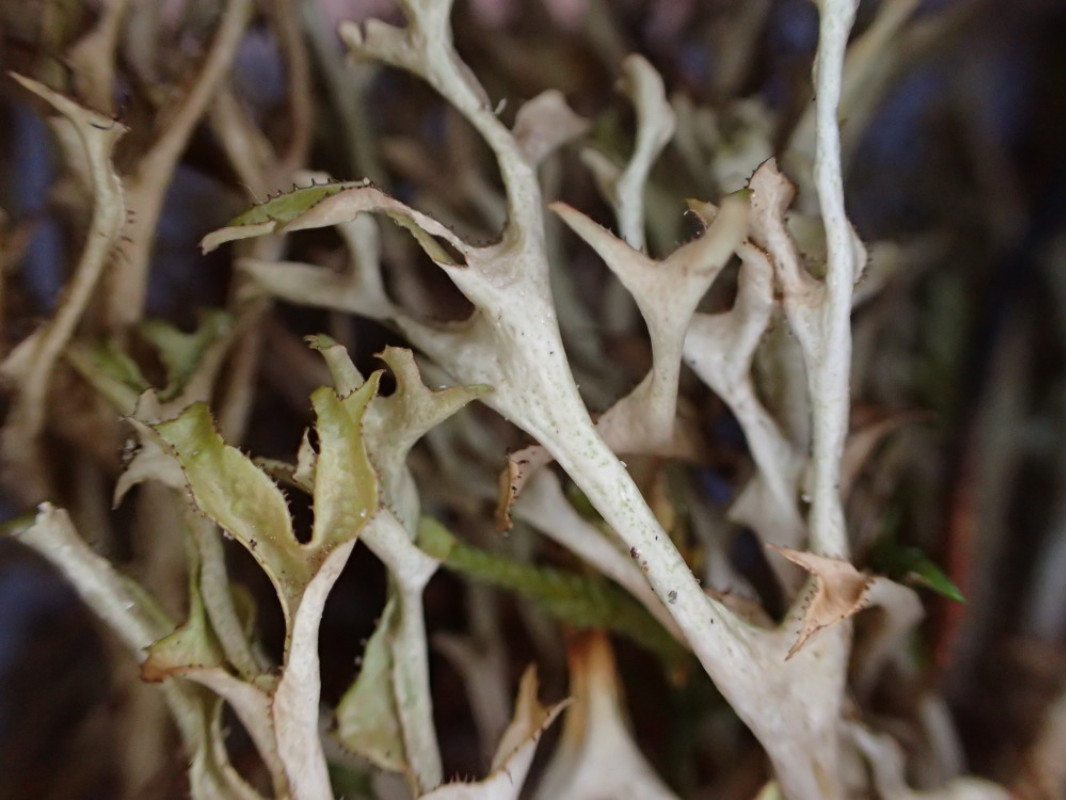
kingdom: Fungi
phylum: Ascomycota
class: Lecanoromycetes
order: Lecanorales
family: Parmeliaceae
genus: Cetraria
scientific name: Cetraria islandica
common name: islandsk kruslav
